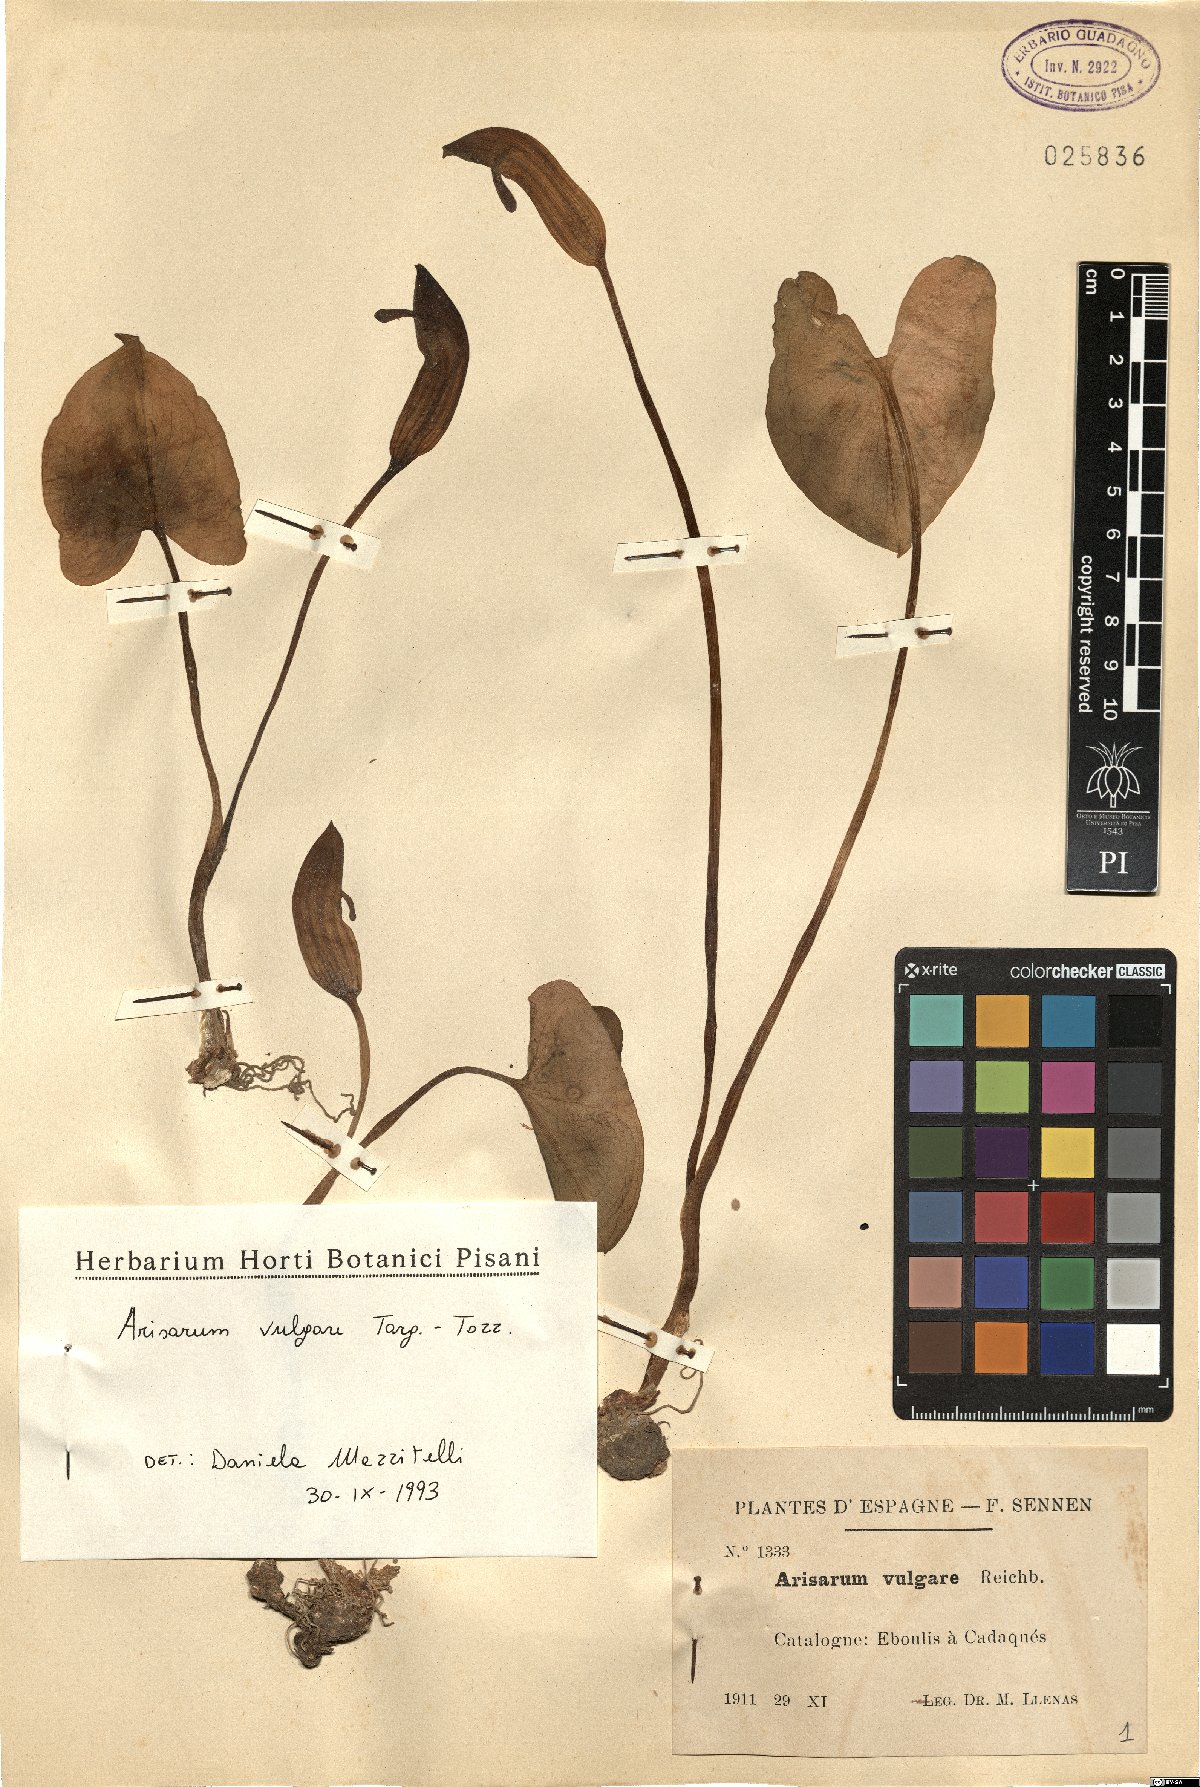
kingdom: Plantae
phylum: Tracheophyta
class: Liliopsida
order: Alismatales
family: Araceae
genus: Arisarum
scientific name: Arisarum vulgare
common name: Common arisarum
